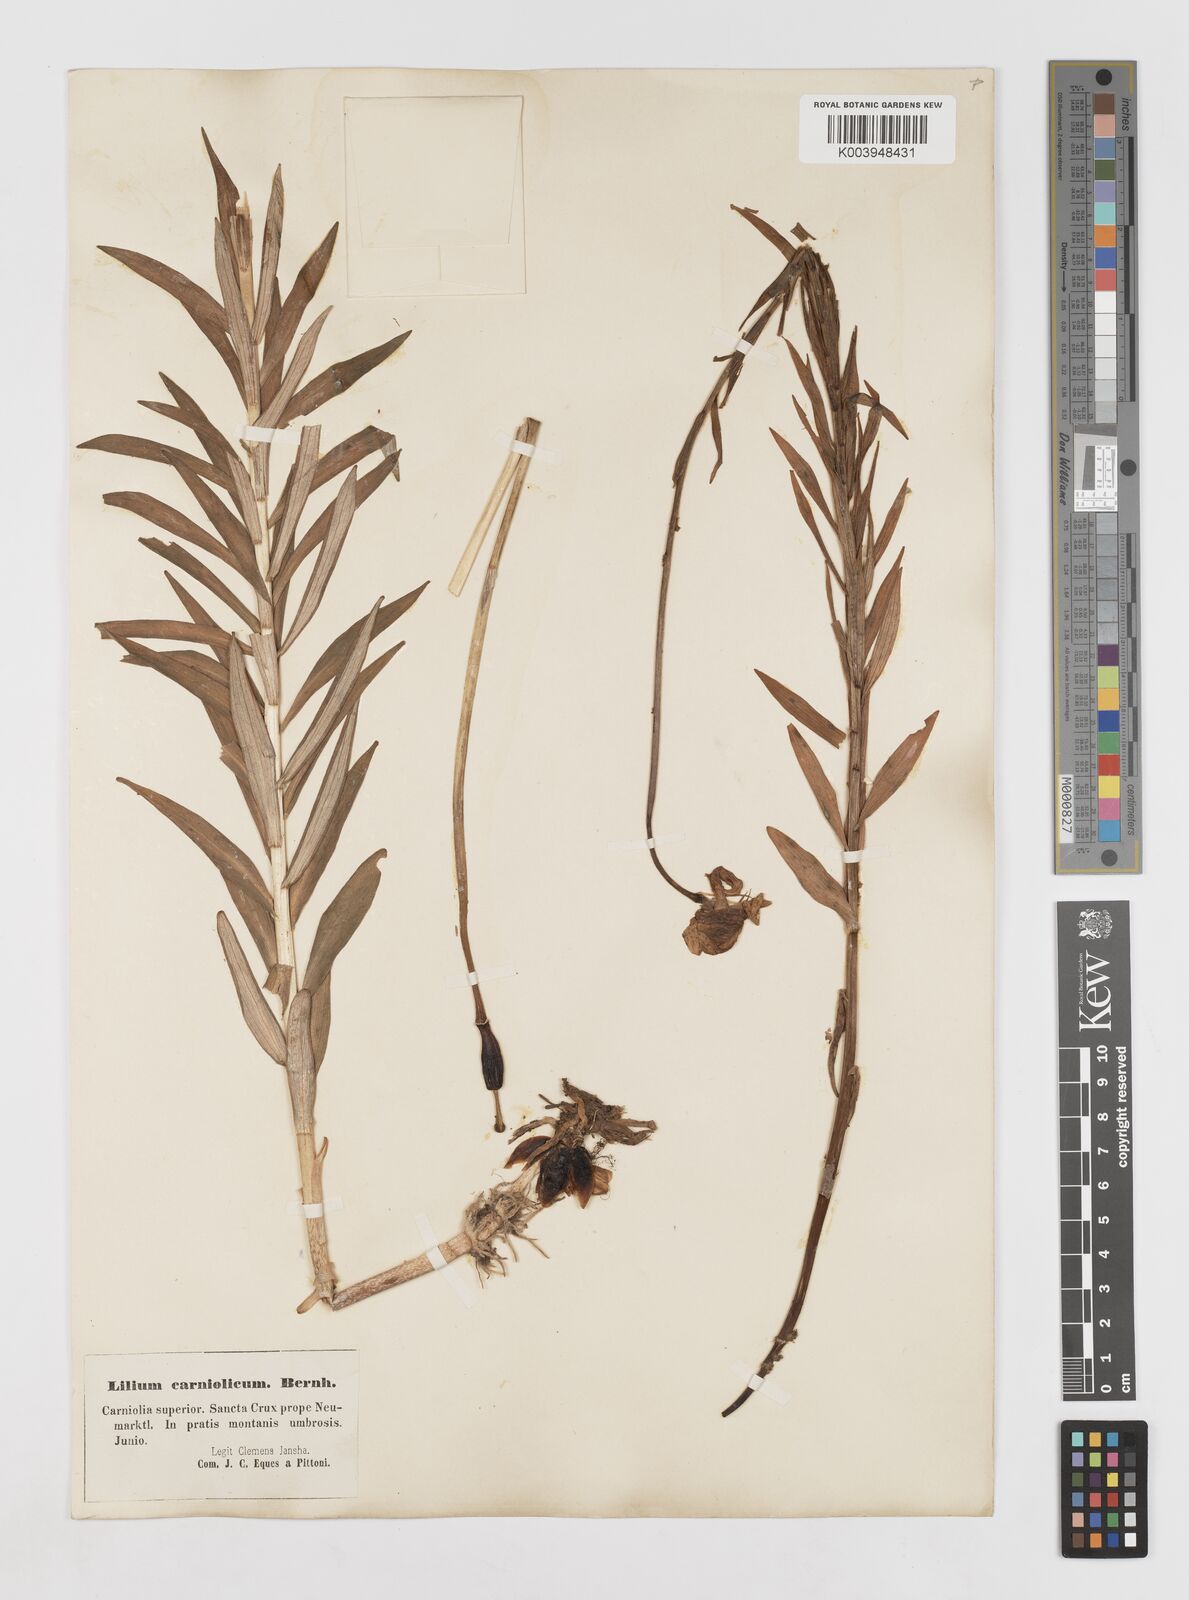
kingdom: Plantae
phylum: Tracheophyta
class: Liliopsida
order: Liliales
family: Liliaceae
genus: Lilium
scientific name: Lilium carniolicum
